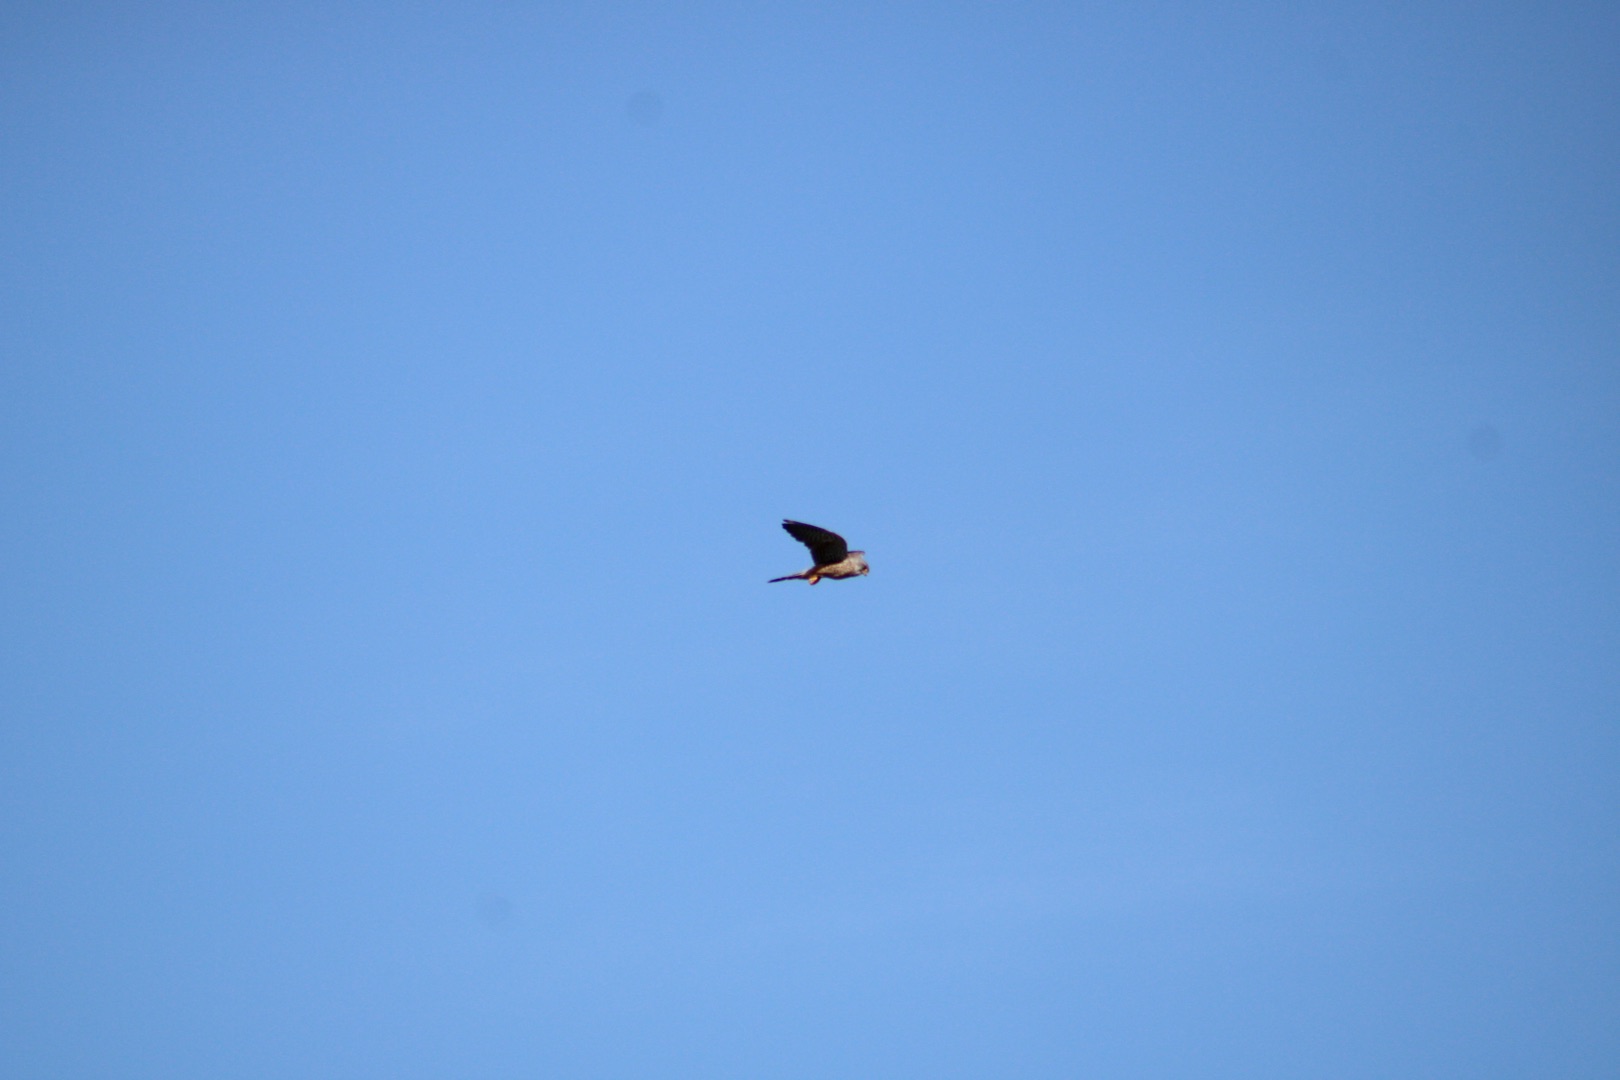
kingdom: Animalia
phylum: Chordata
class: Aves
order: Falconiformes
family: Falconidae
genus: Falco
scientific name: Falco tinnunculus
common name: Tårnfalk
